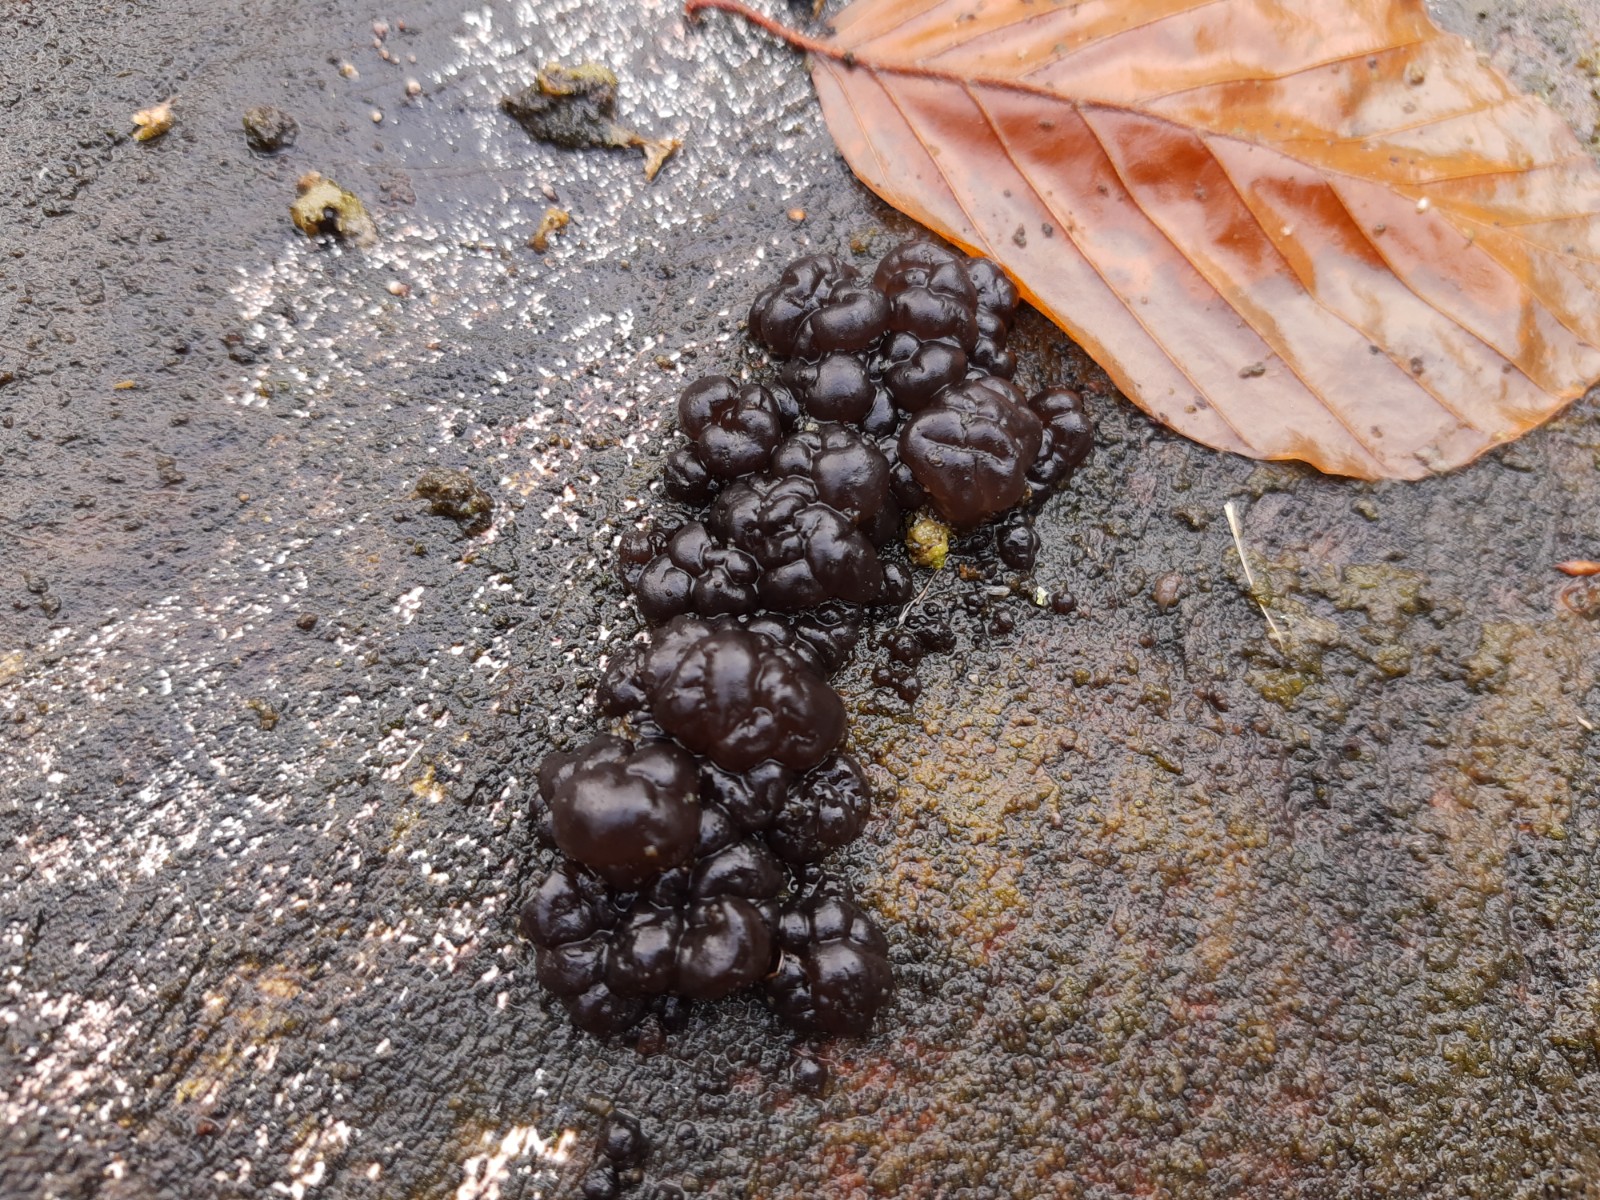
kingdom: Fungi
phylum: Basidiomycota
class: Agaricomycetes
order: Auriculariales
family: Auriculariaceae
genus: Exidia
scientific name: Exidia nigricans
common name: almindelig bævretop
